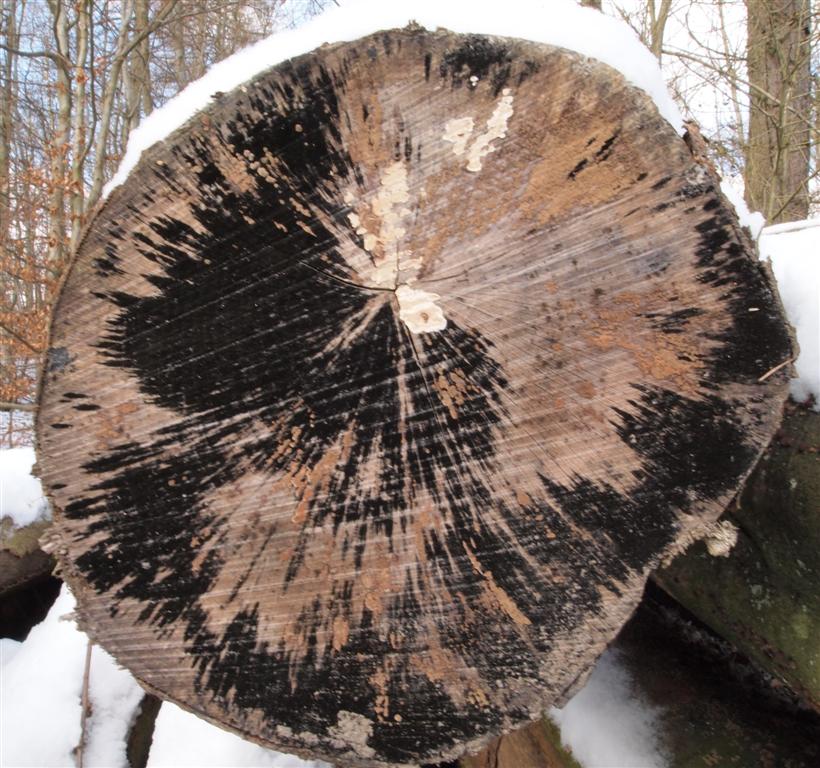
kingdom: Fungi
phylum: Ascomycota
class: Leotiomycetes
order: Helotiales
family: Helotiaceae
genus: Bispora
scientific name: Bispora pallescens
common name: måtte-snitskive
